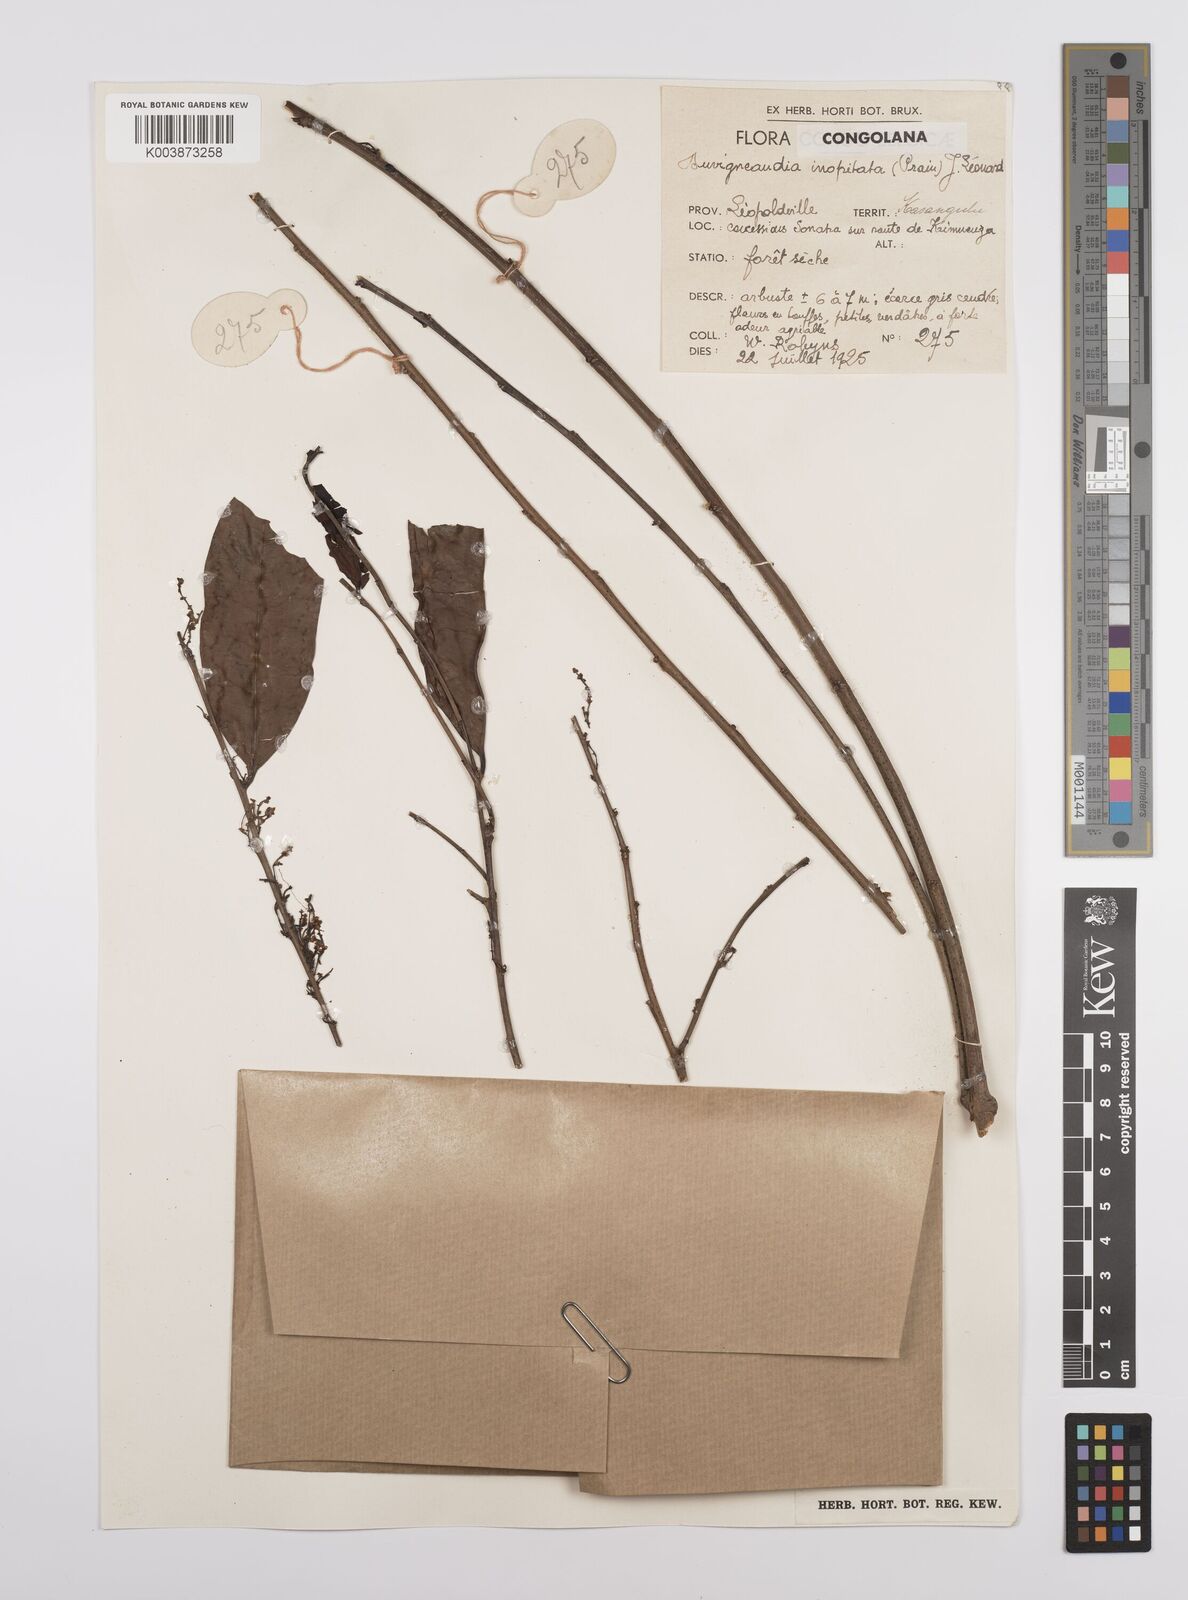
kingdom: Plantae
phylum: Tracheophyta
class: Magnoliopsida
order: Malpighiales
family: Euphorbiaceae
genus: Gymnanthes
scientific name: Gymnanthes
